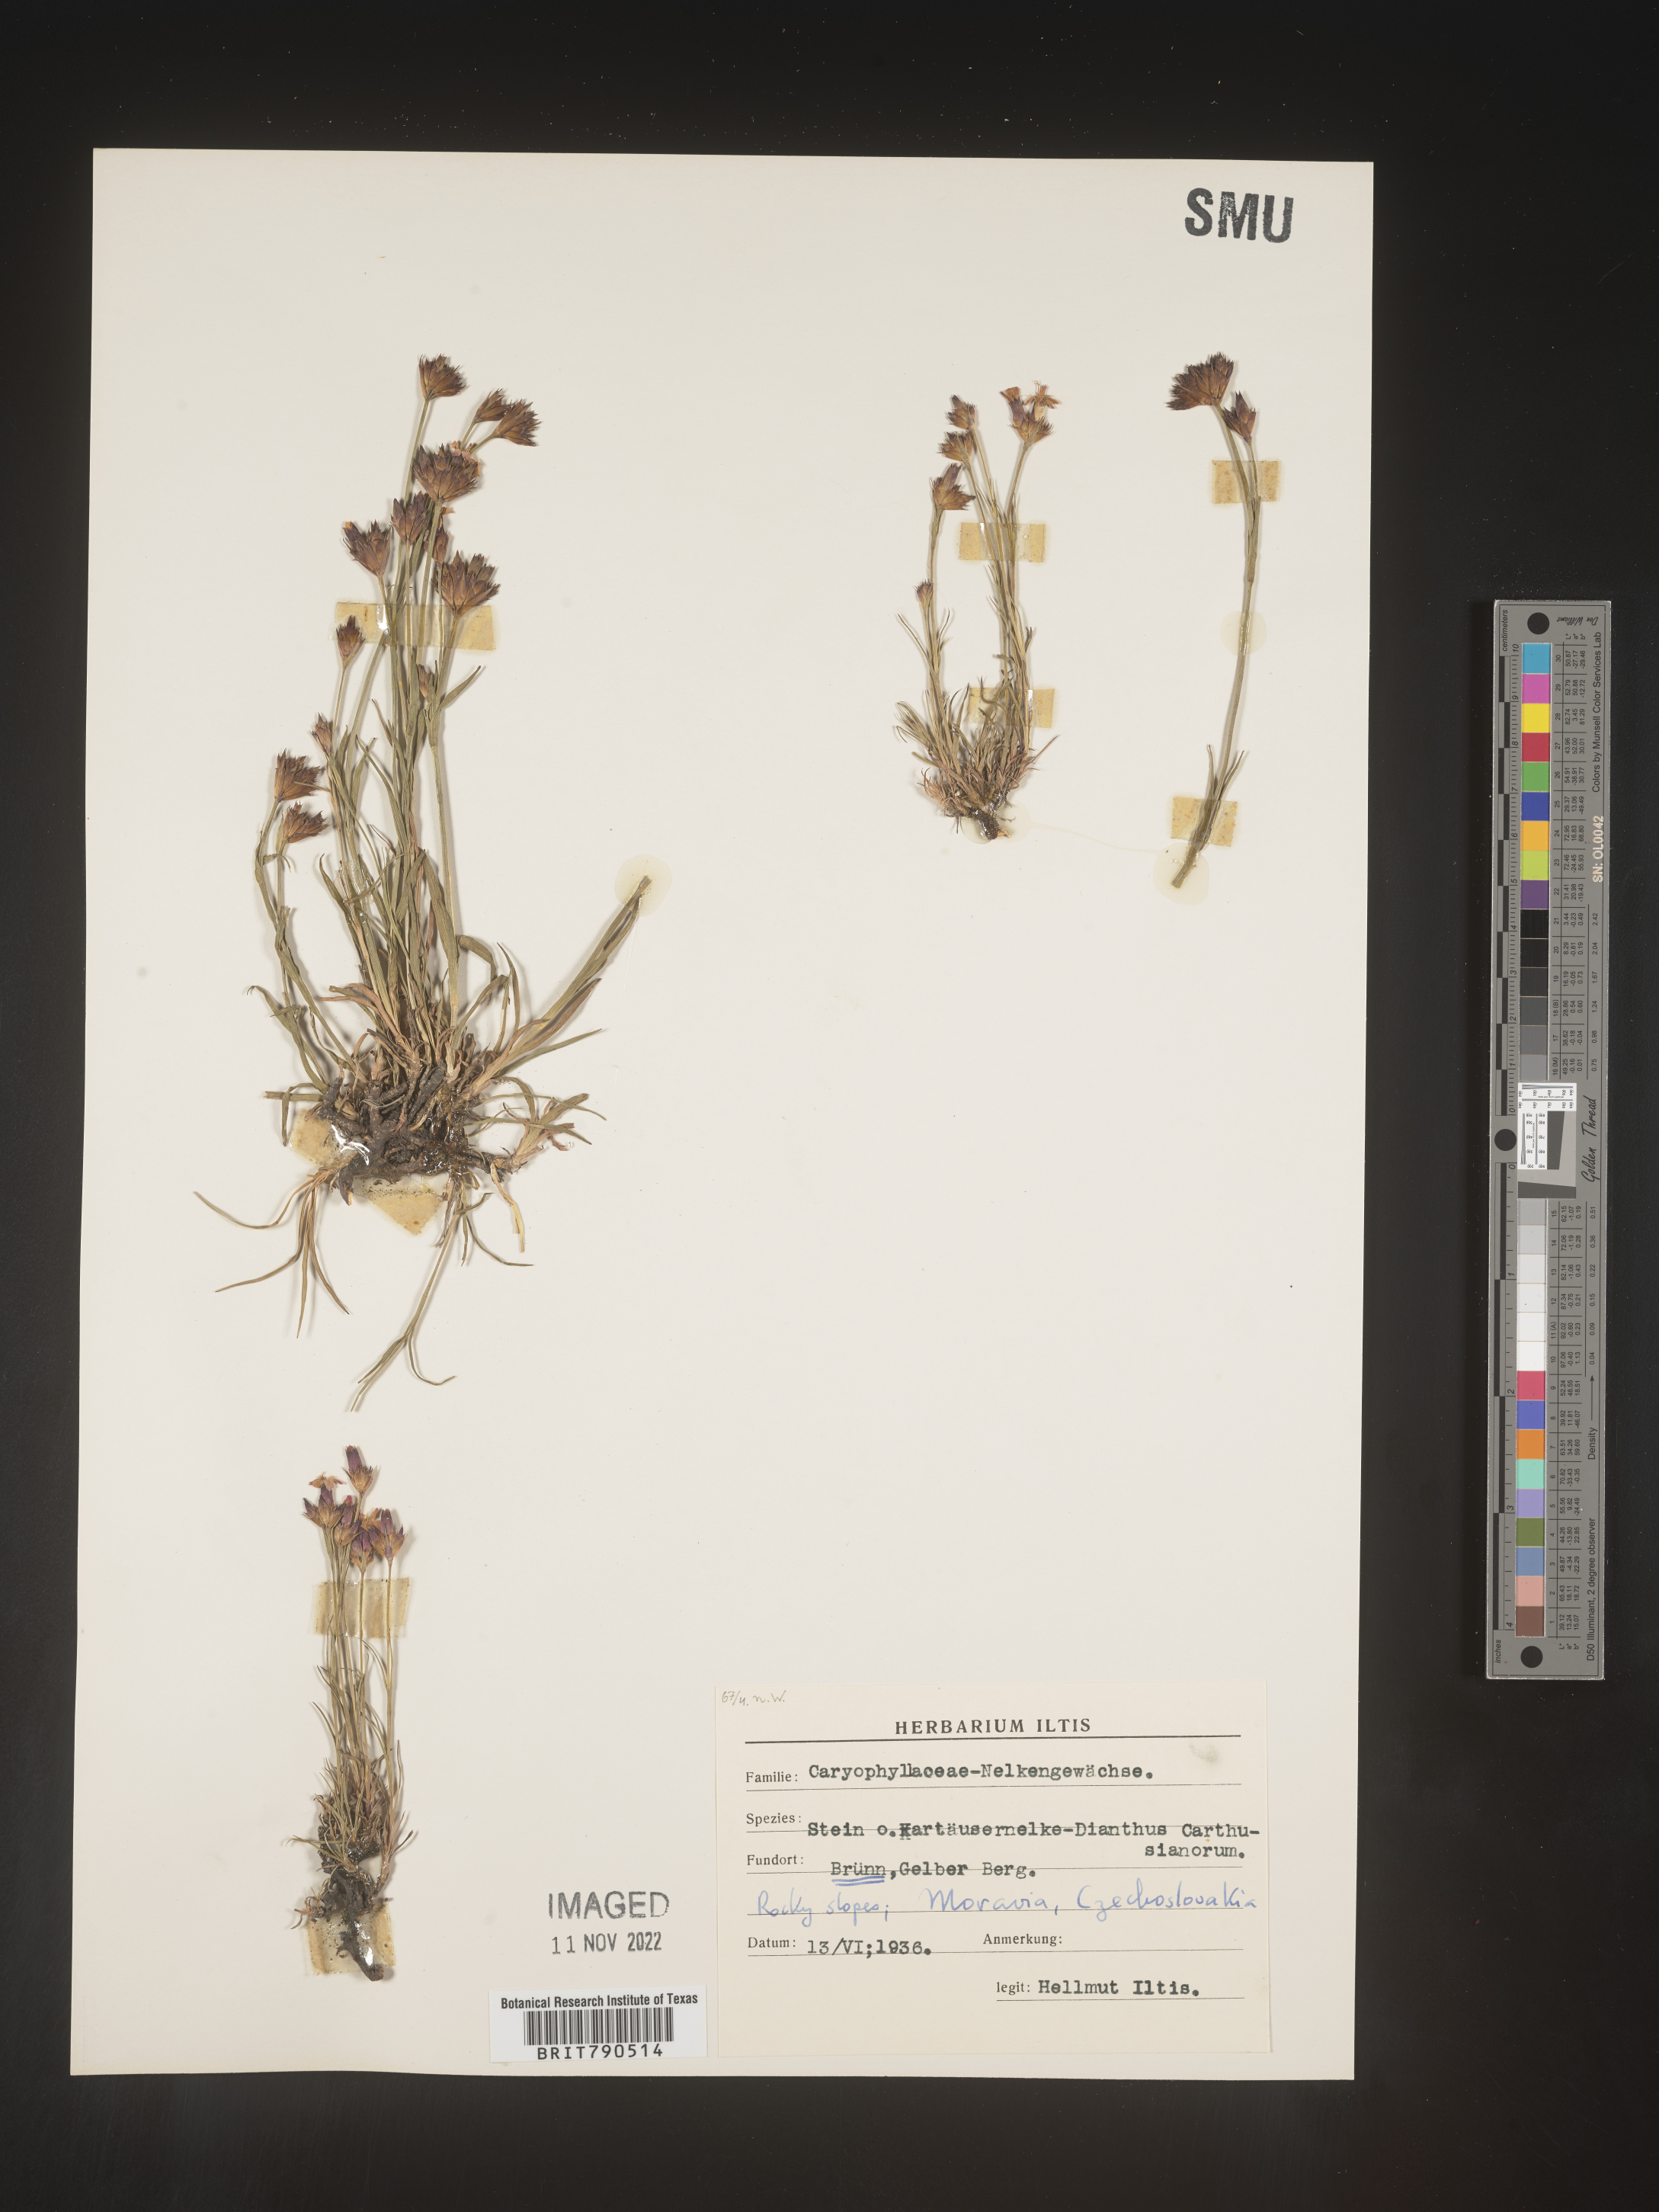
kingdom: Plantae
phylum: Tracheophyta
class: Magnoliopsida
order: Caryophyllales
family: Caryophyllaceae
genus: Dianthus
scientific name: Dianthus carthusianorum
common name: Carthusian pink
